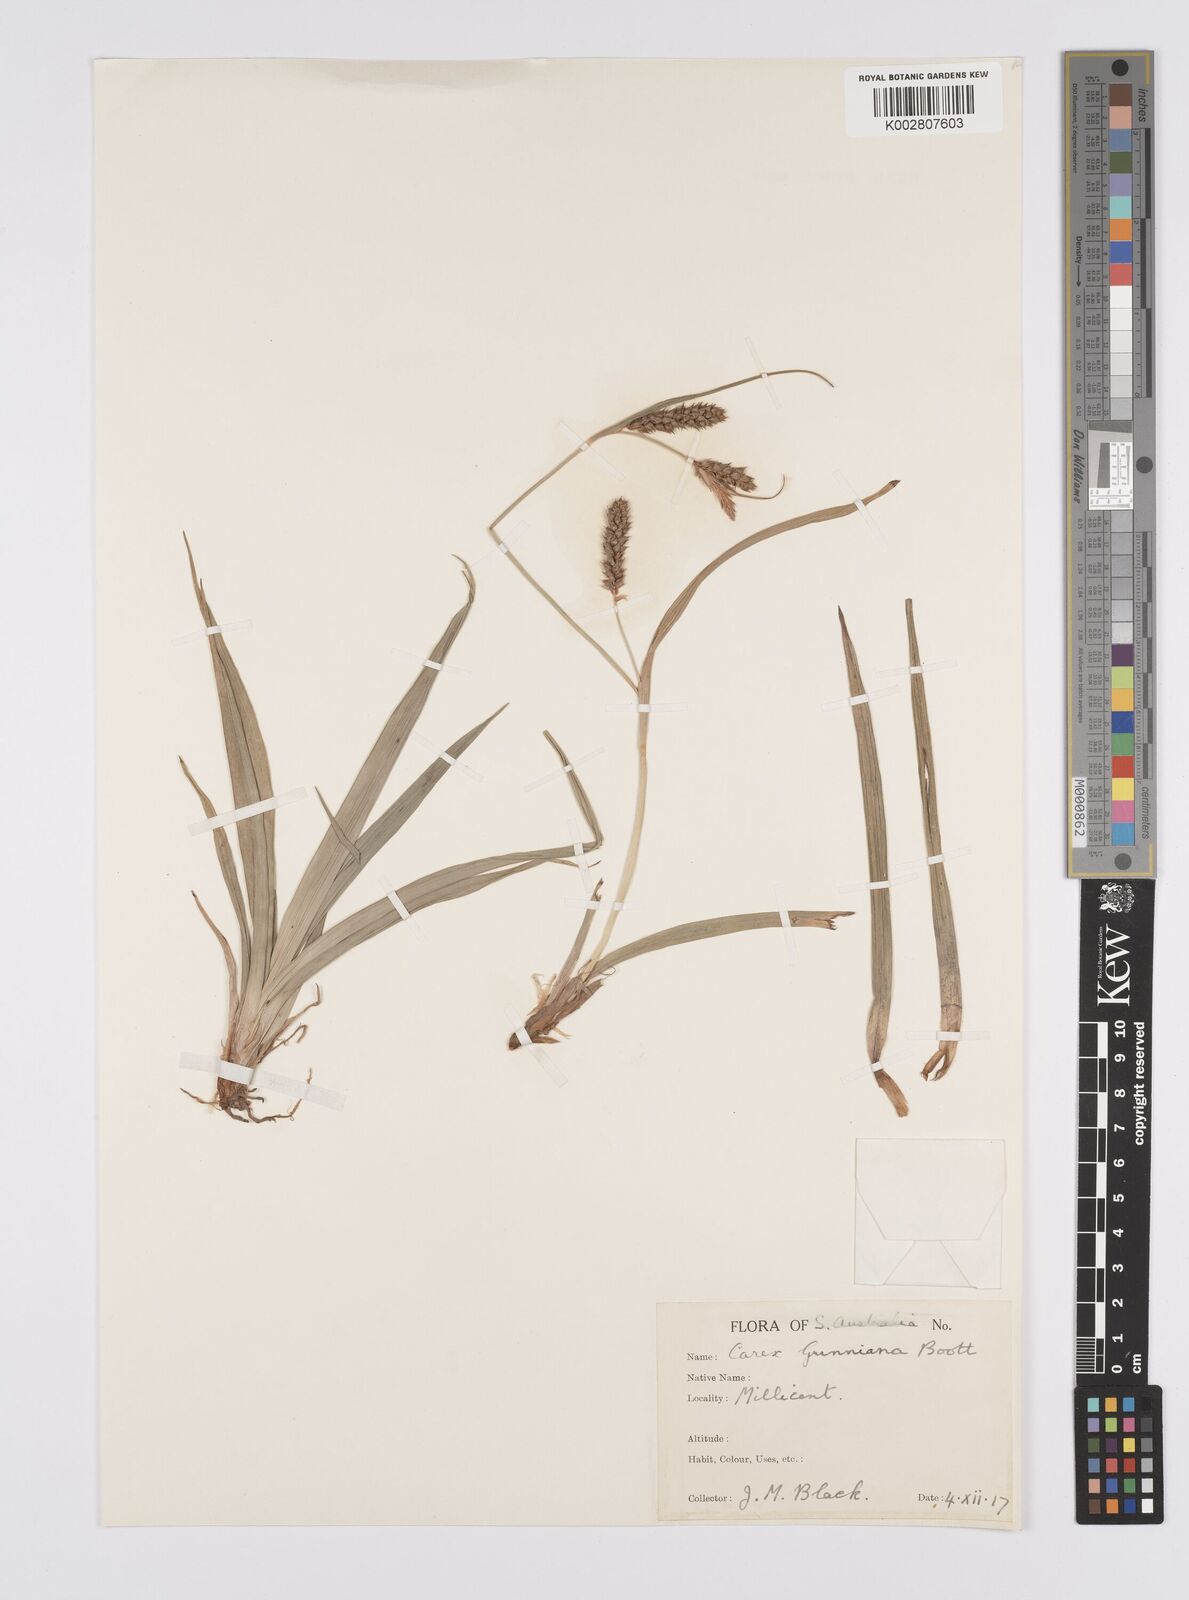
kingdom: Plantae
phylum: Tracheophyta
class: Liliopsida
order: Poales
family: Cyperaceae
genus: Carex
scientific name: Carex gunniana
